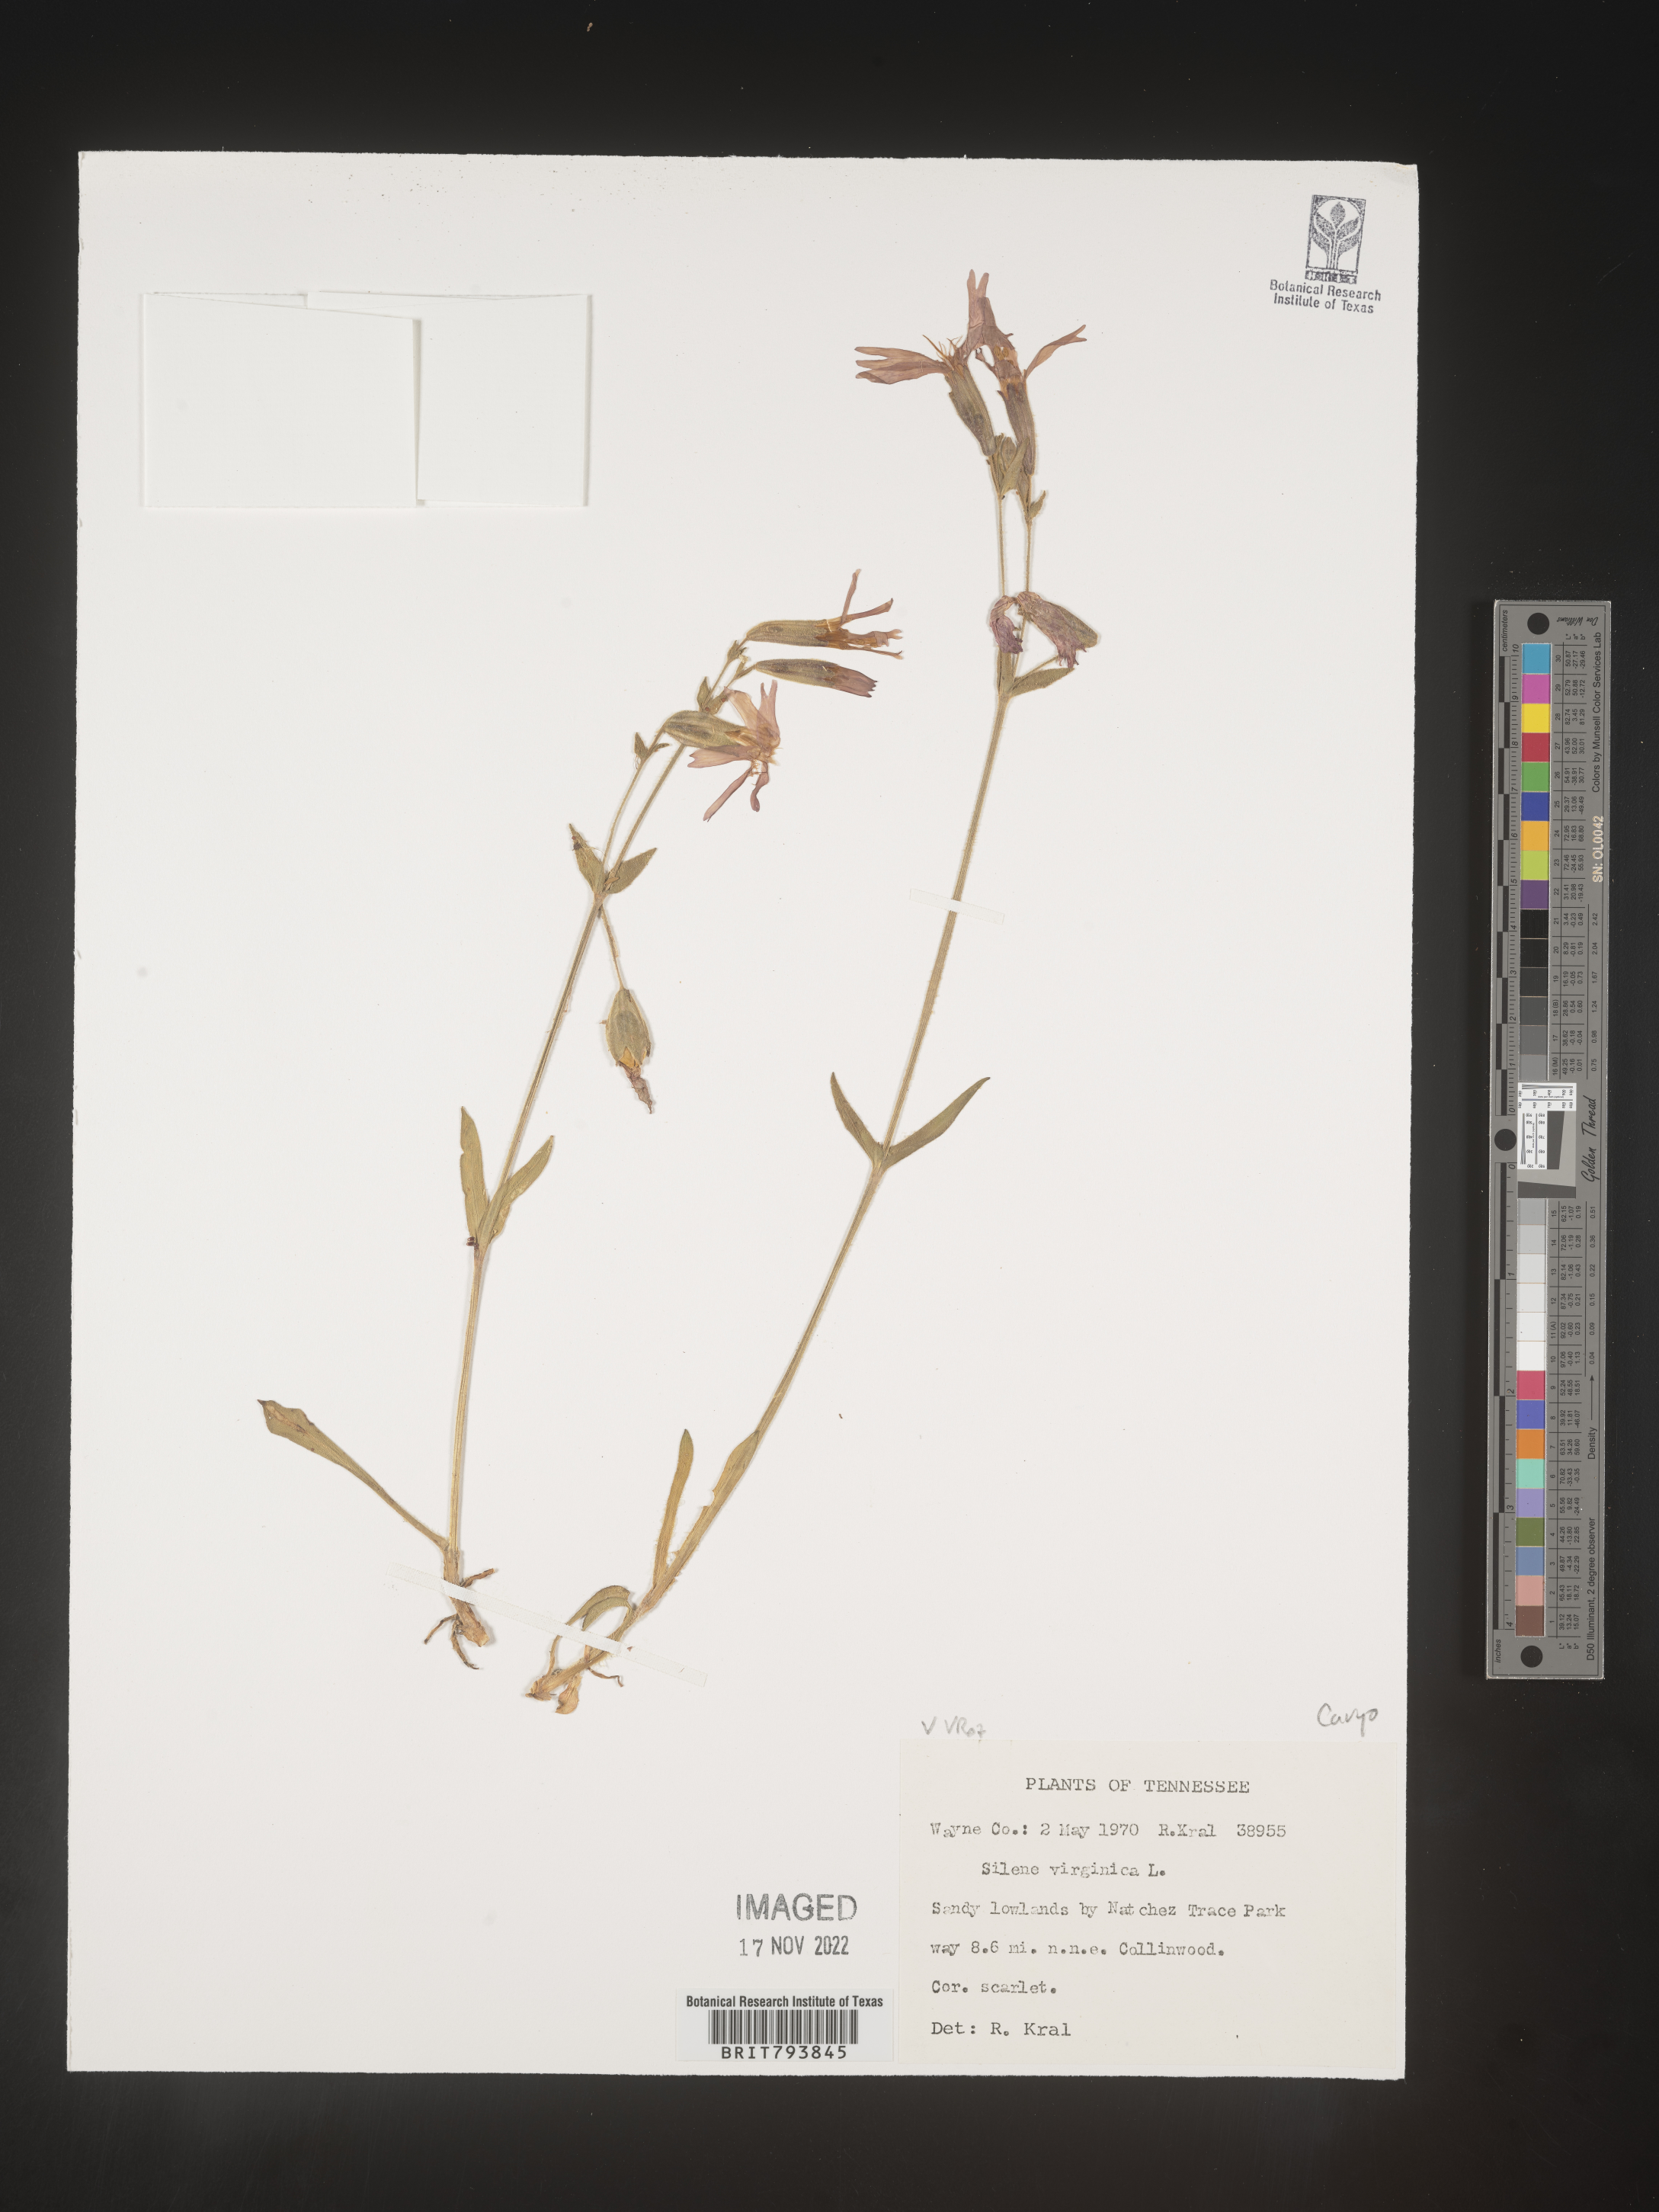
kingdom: Plantae
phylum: Tracheophyta
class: Magnoliopsida
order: Caryophyllales
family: Caryophyllaceae
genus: Silene
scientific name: Silene virginica
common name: Fire-pink
